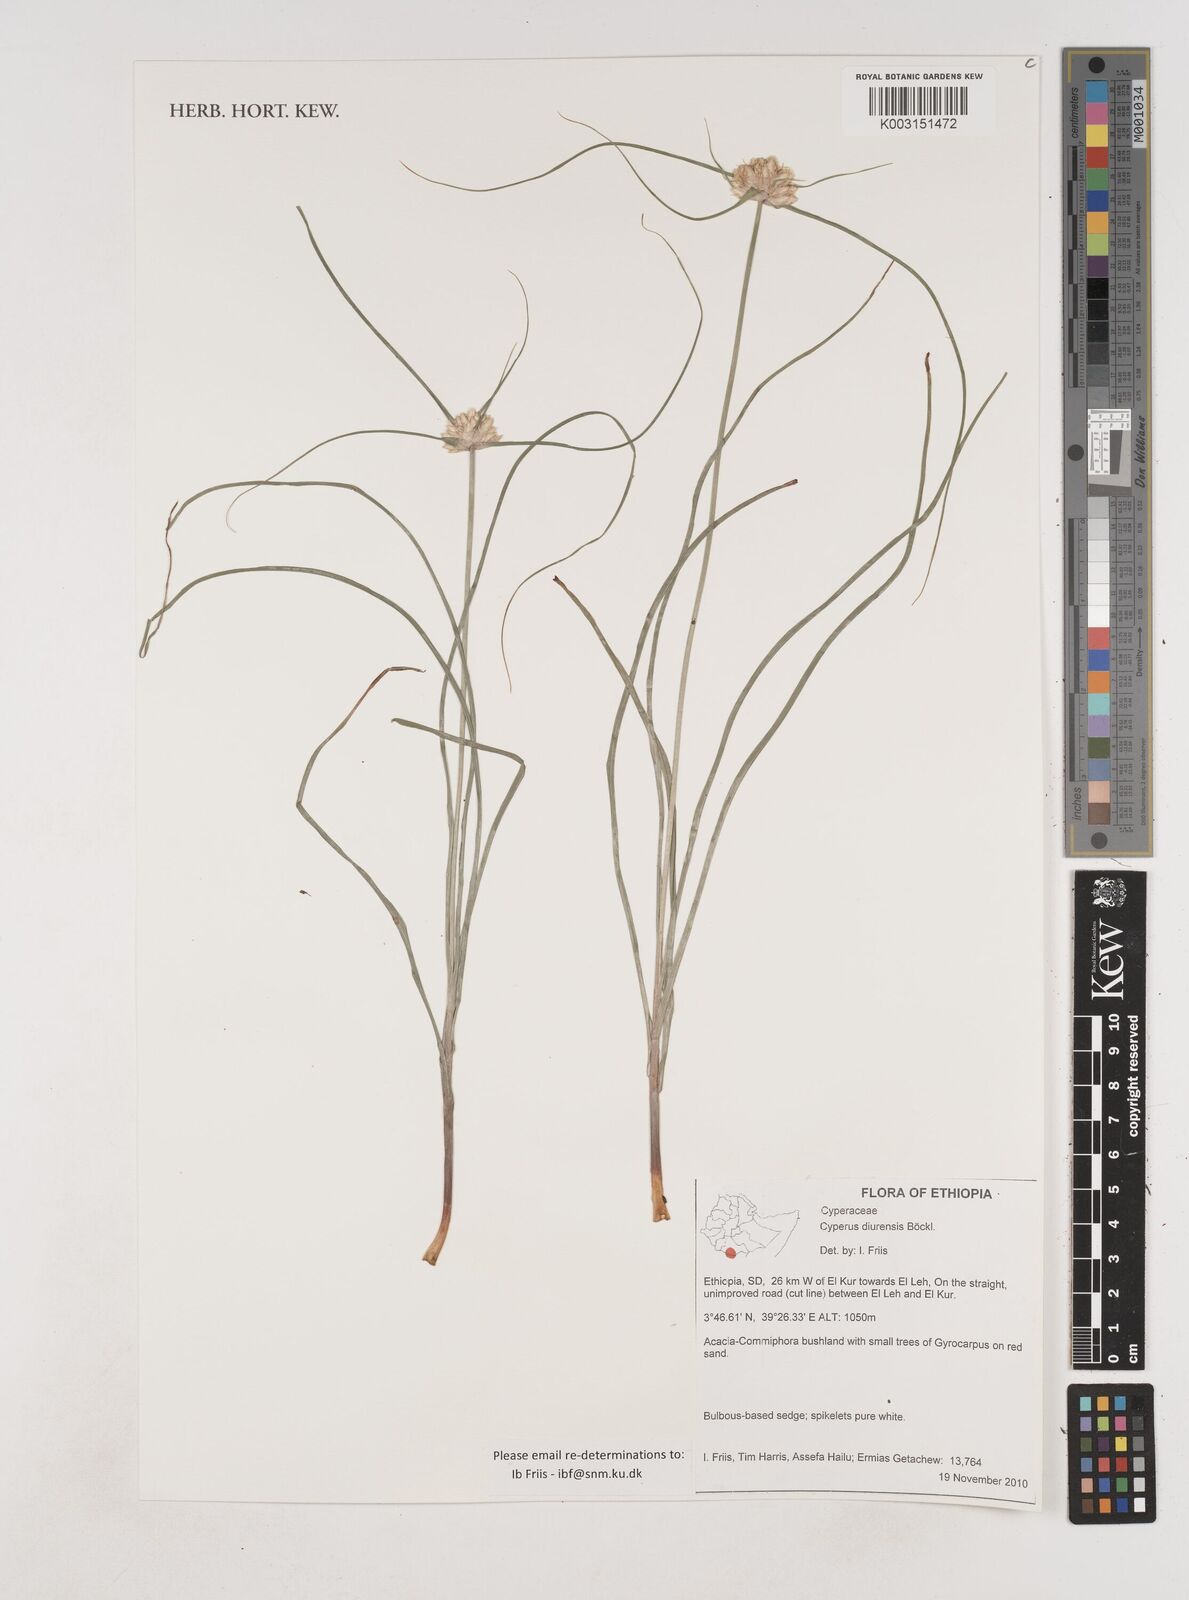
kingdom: Plantae
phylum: Tracheophyta
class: Liliopsida
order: Poales
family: Cyperaceae
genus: Cyperus
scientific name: Cyperus diurensis
